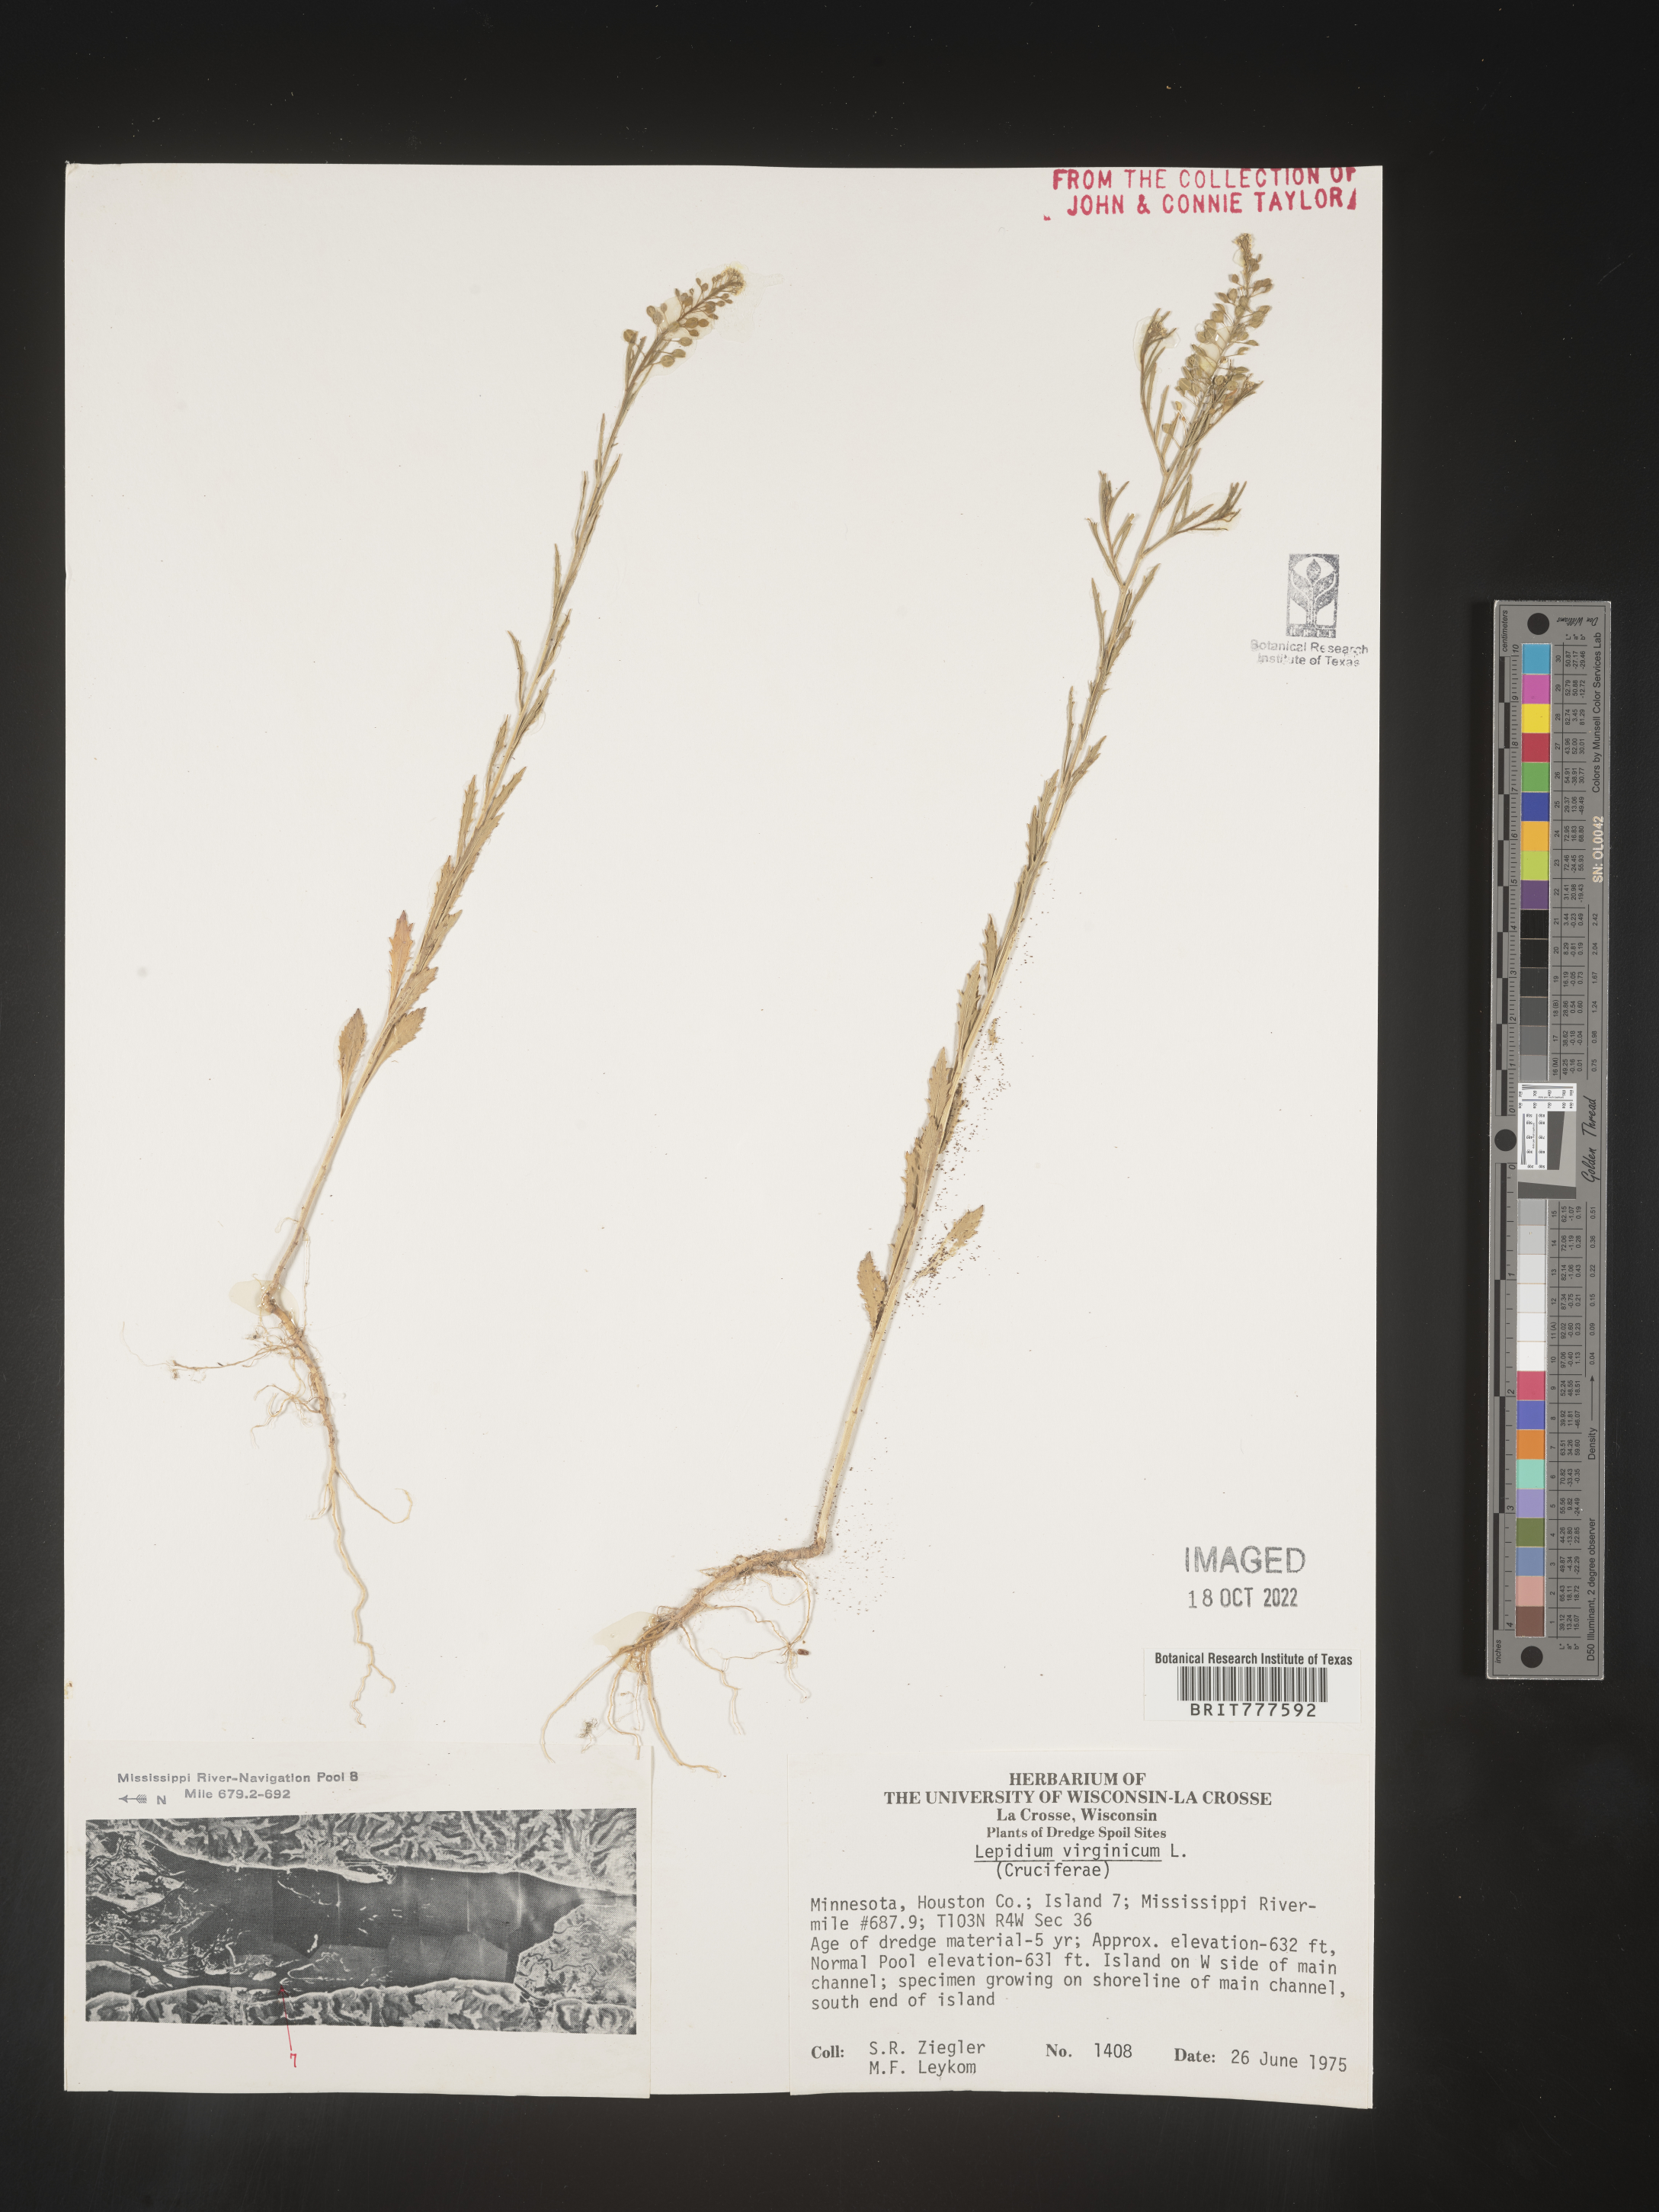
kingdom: Plantae
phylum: Tracheophyta
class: Magnoliopsida
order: Brassicales
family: Brassicaceae
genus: Lepidium
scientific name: Lepidium virginicum
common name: Least pepperwort
